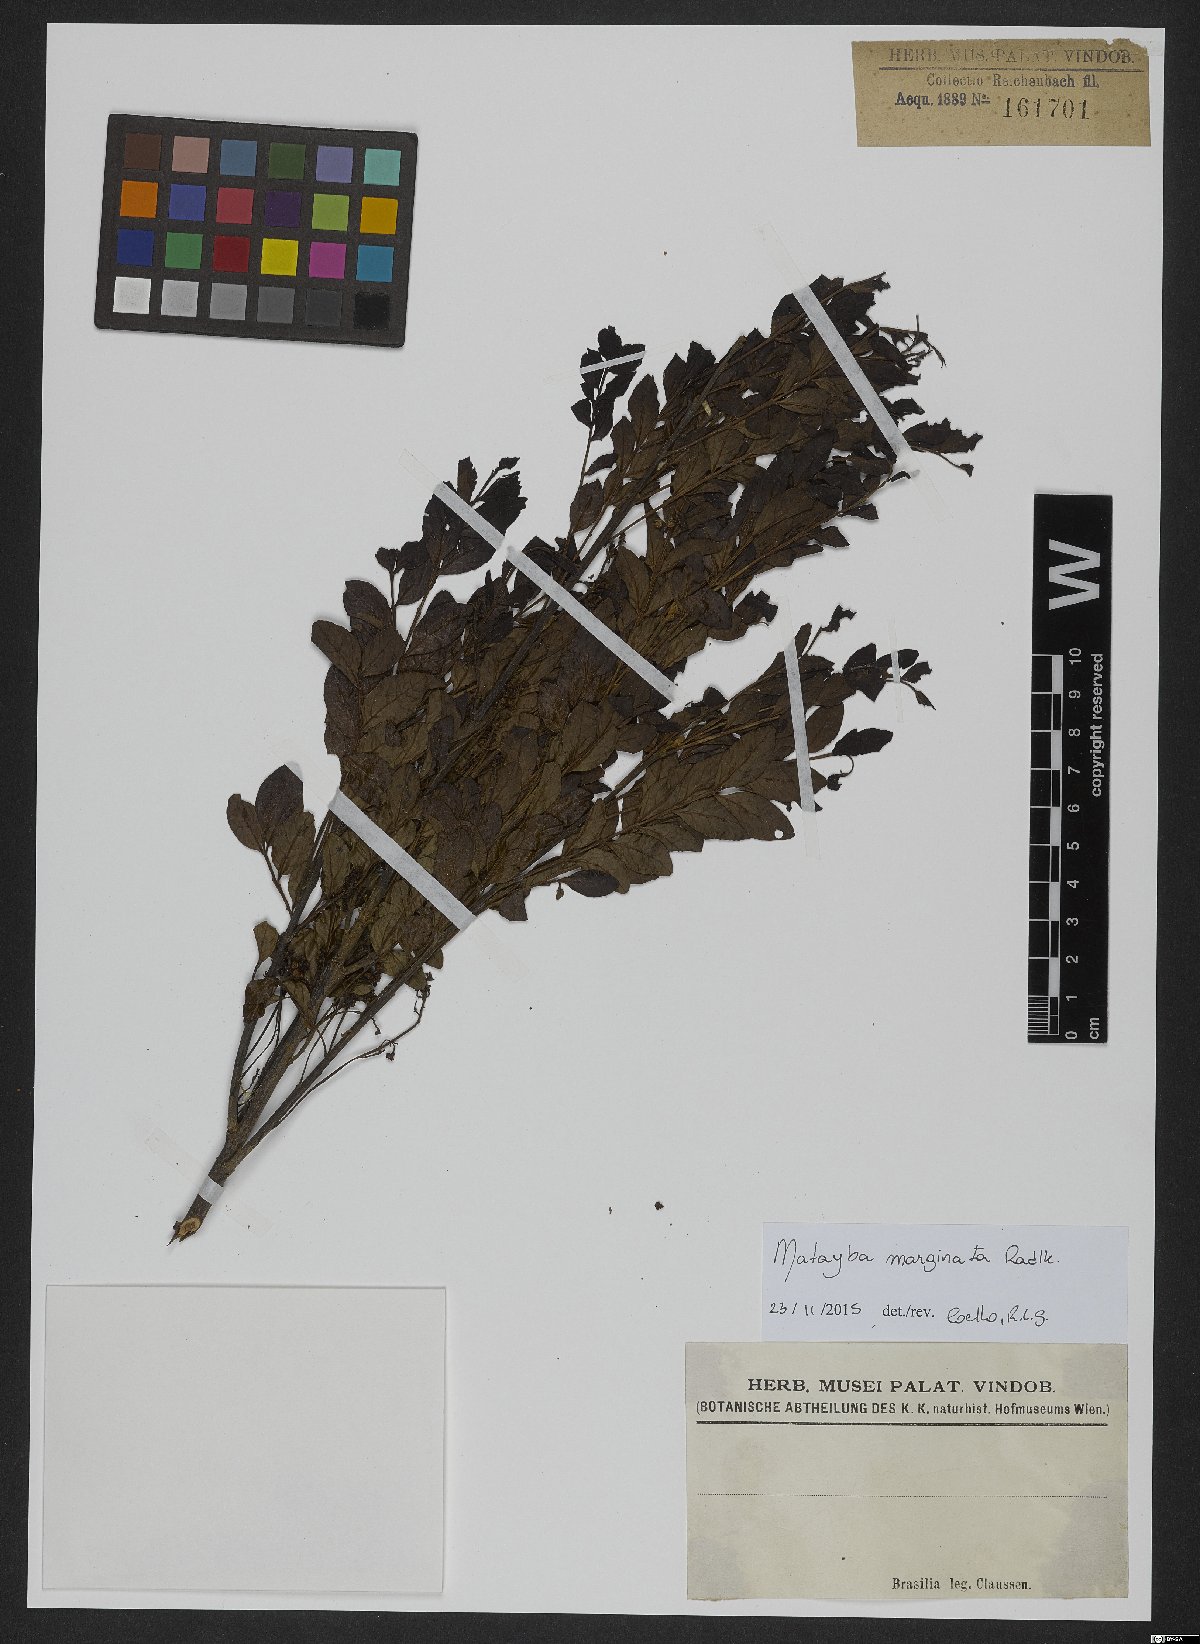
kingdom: Plantae
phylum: Tracheophyta
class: Magnoliopsida
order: Sapindales
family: Sapindaceae
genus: Matayba
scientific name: Matayba marginata
